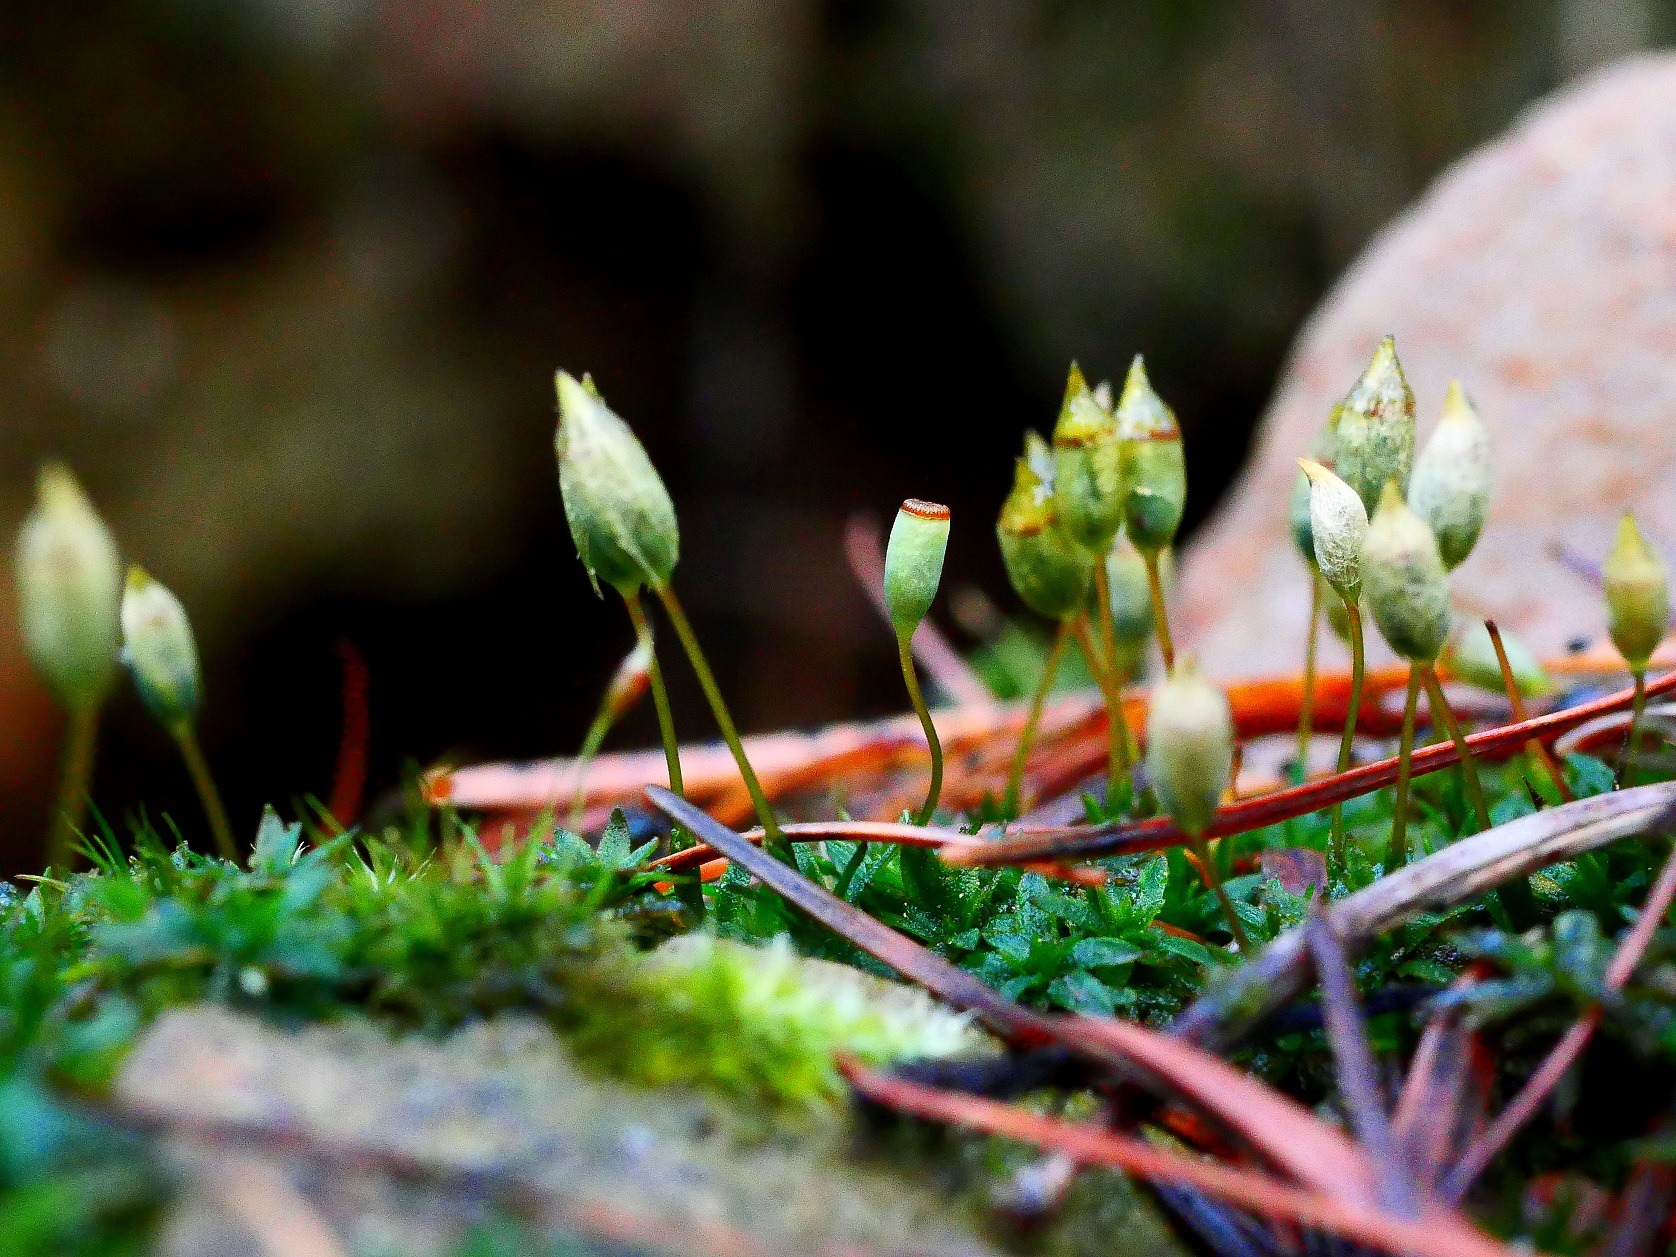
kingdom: Plantae
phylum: Bryophyta
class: Polytrichopsida
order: Polytrichales
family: Polytrichaceae
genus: Pogonatum
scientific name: Pogonatum aloides
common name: Smal urnekapsel
